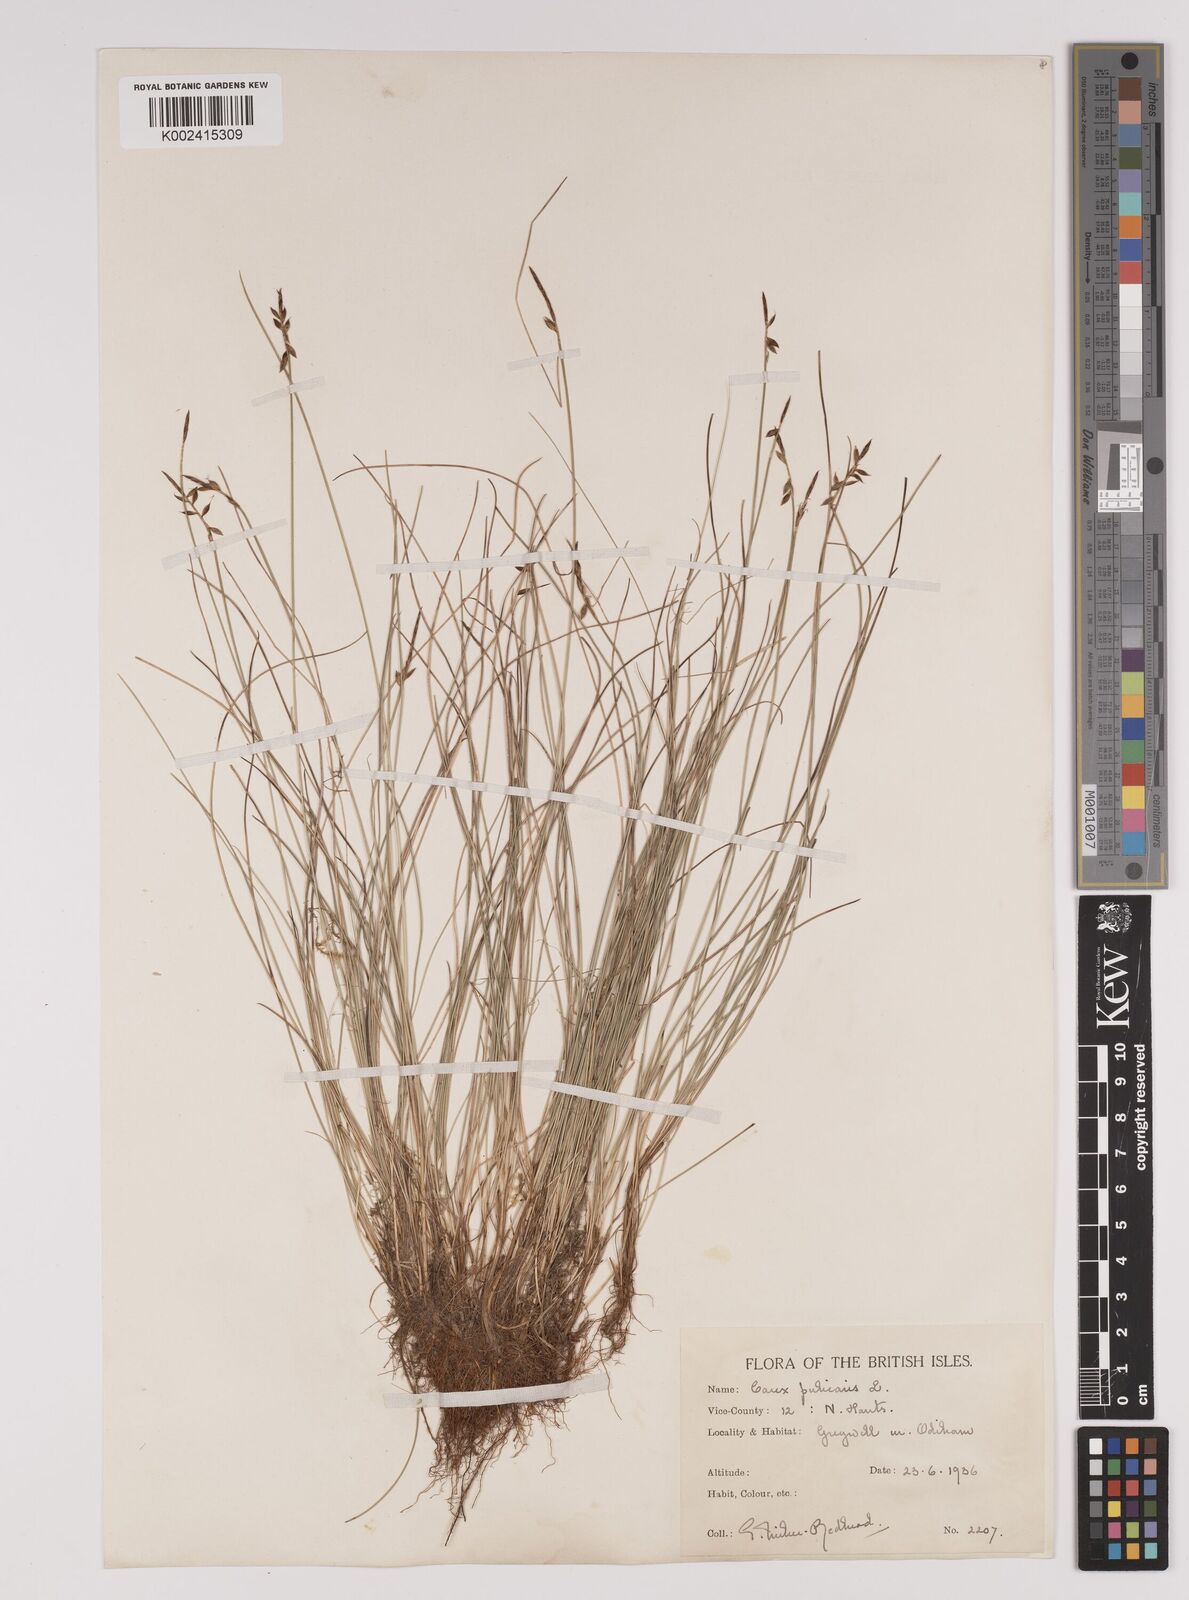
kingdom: Plantae
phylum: Tracheophyta
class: Liliopsida
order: Poales
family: Cyperaceae
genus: Carex
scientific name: Carex pulicaris
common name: Flea sedge
